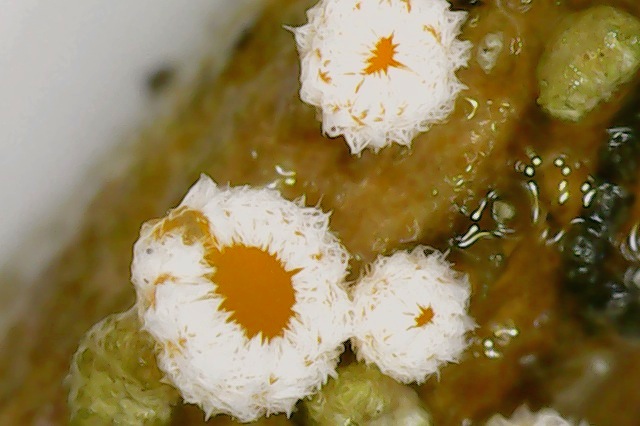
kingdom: Fungi
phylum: Ascomycota
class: Leotiomycetes
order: Helotiales
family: Lachnaceae
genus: Capitotricha
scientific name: Capitotricha bicolor
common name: prægtig frynseskive
